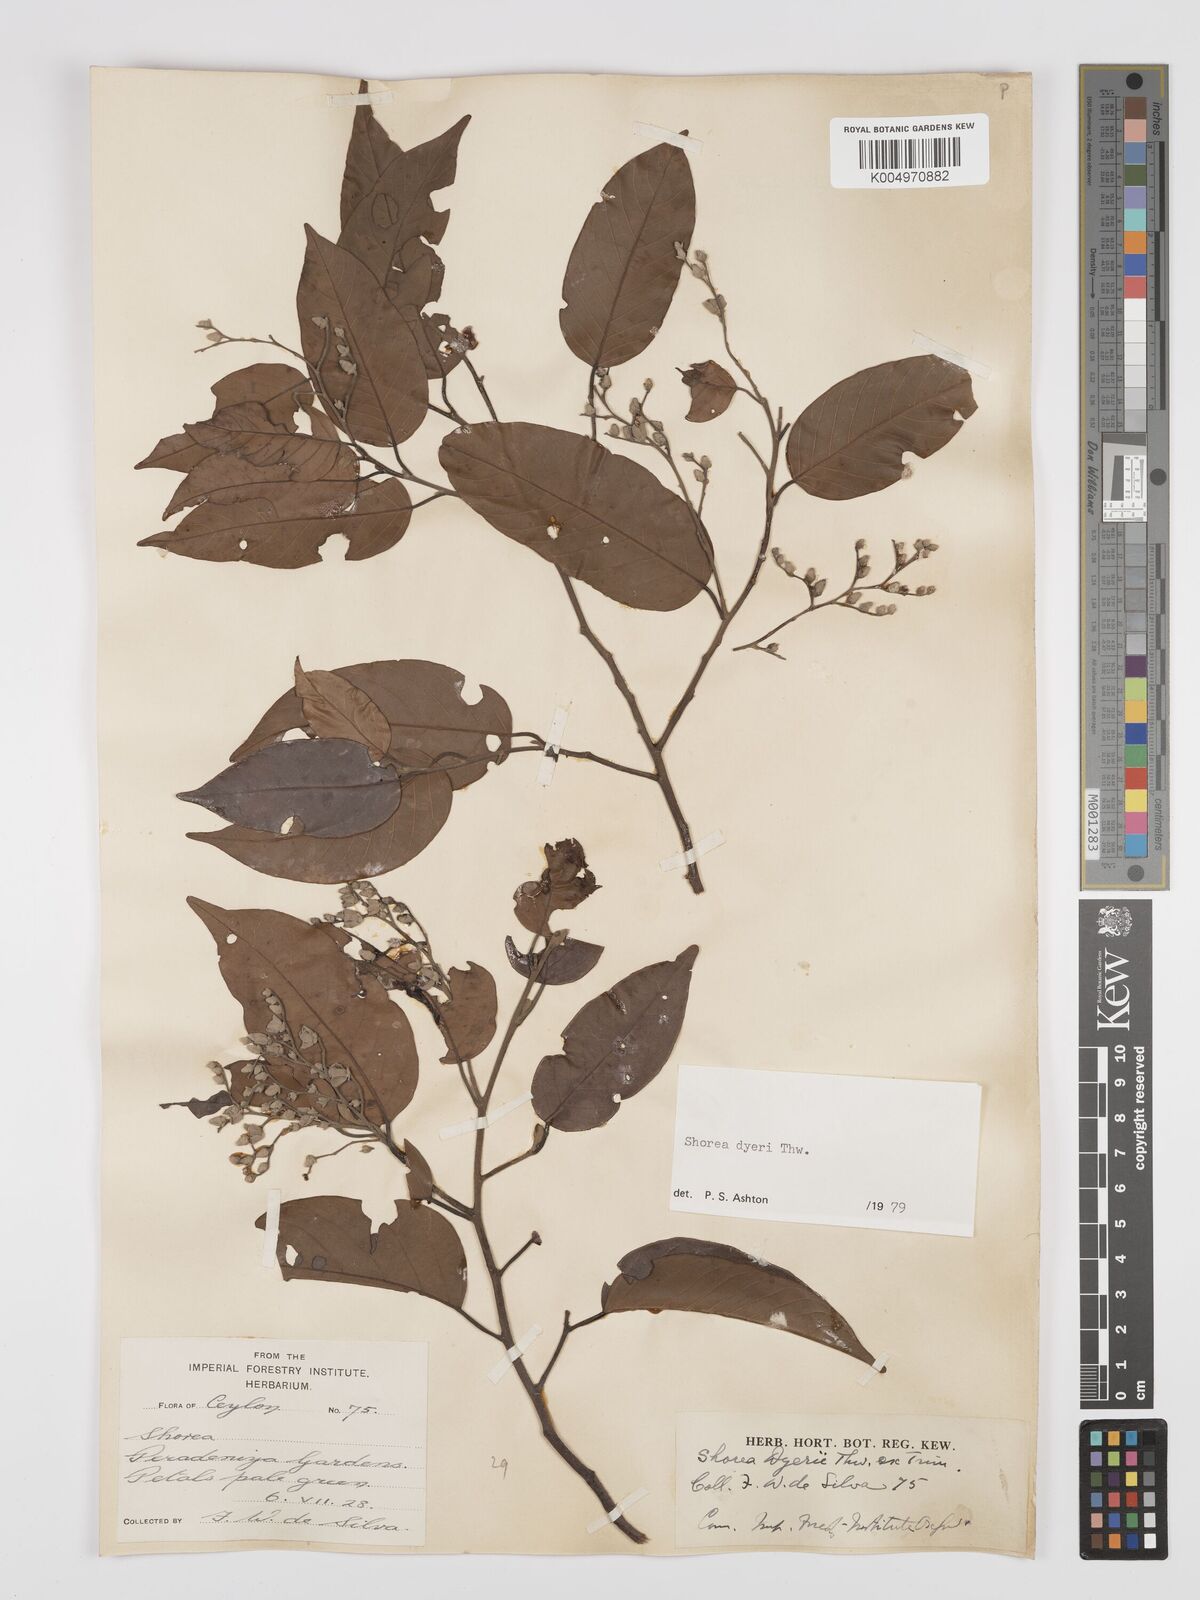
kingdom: Plantae
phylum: Tracheophyta
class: Magnoliopsida
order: Malvales
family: Dipterocarpaceae
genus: Shorea
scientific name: Shorea dyeri
